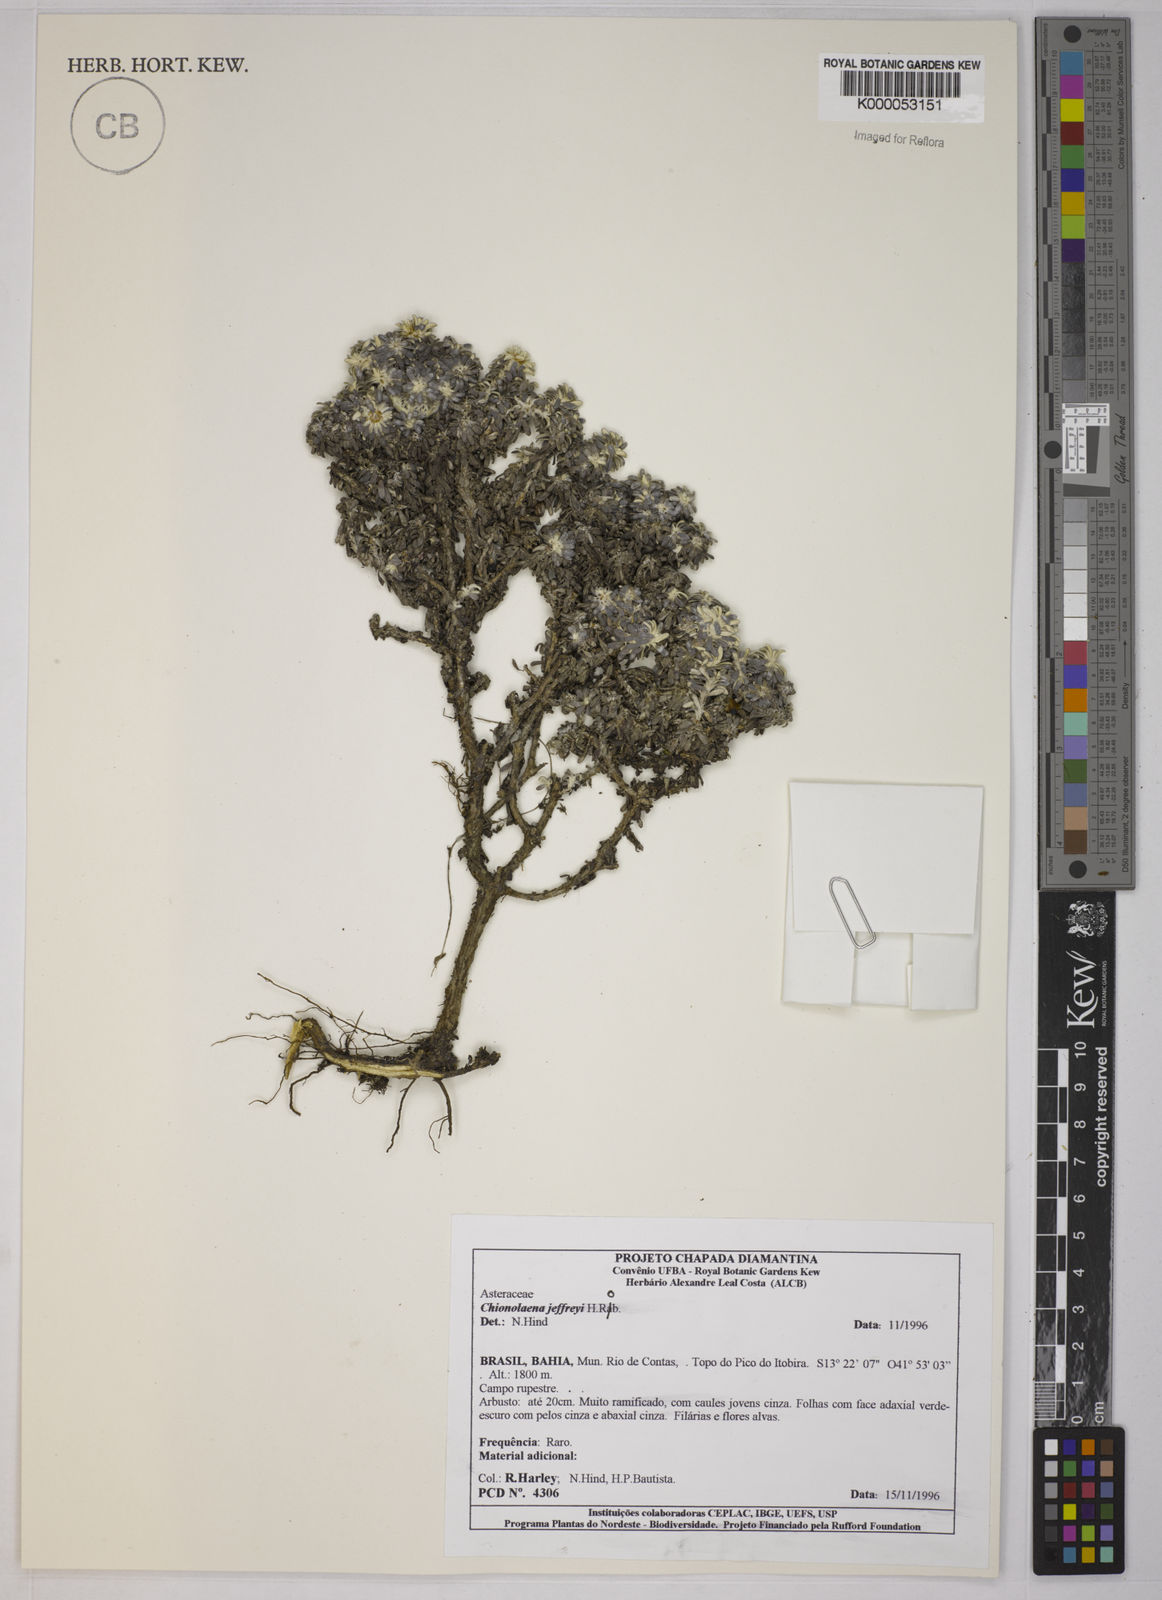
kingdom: Plantae
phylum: Tracheophyta
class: Magnoliopsida
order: Asterales
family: Asteraceae
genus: Chionolaena
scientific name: Chionolaena jeffreyi
